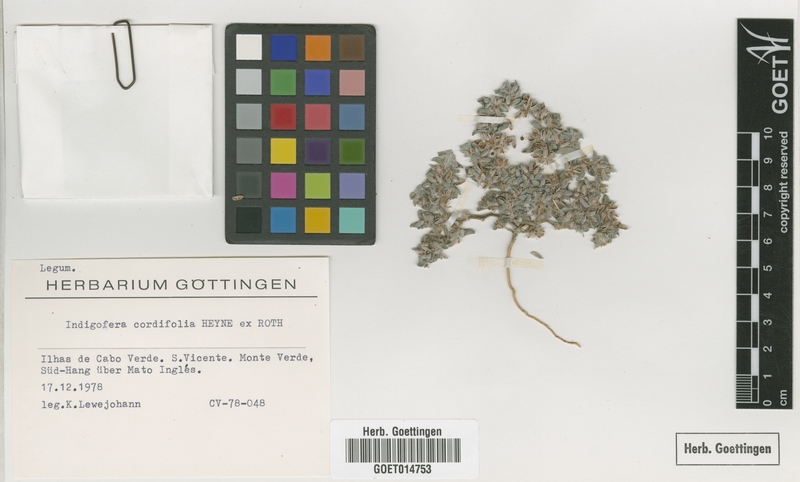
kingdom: Plantae
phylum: Tracheophyta
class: Magnoliopsida
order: Fabales
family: Fabaceae
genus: Indigofera
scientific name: Indigofera cordifolia
